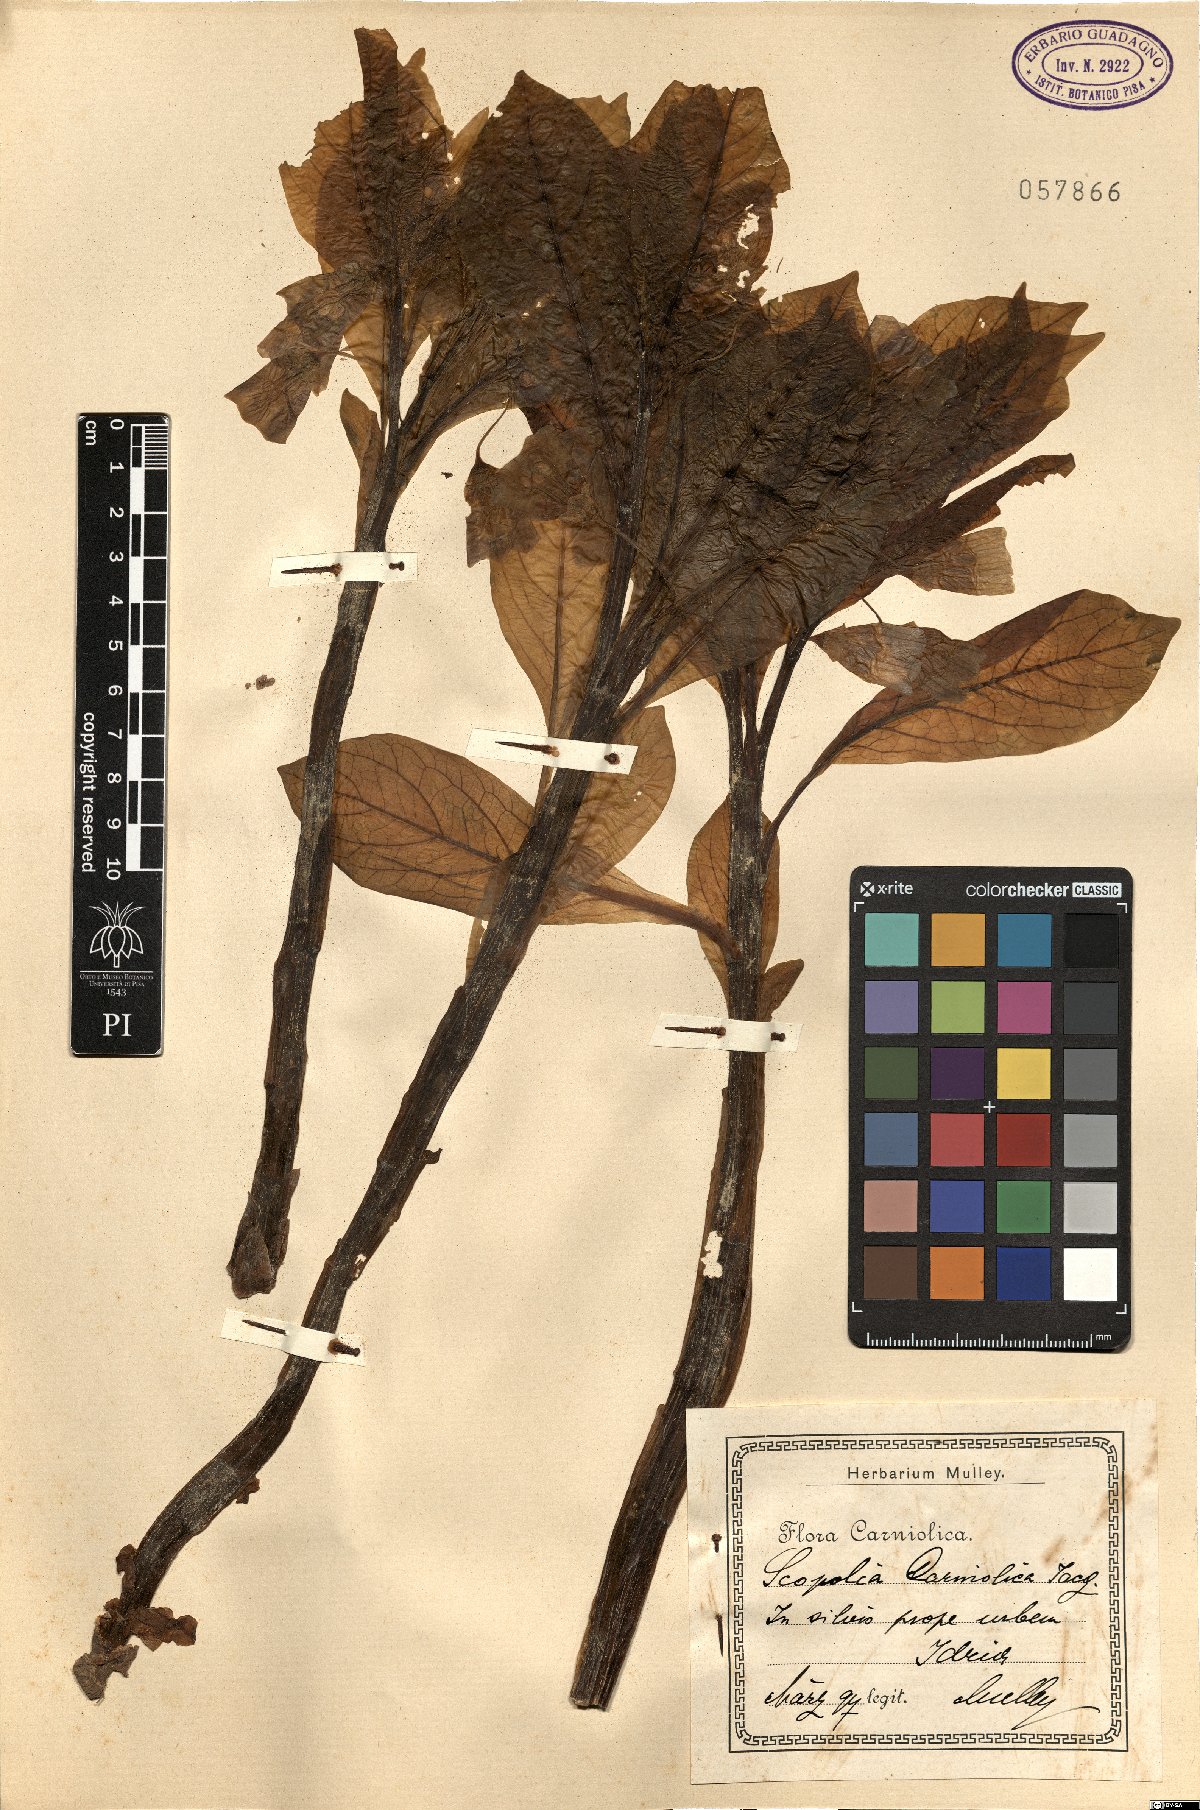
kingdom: Plantae
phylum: Tracheophyta
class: Magnoliopsida
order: Solanales
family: Solanaceae
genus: Scopolia
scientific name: Scopolia carniolica
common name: Scopolia
